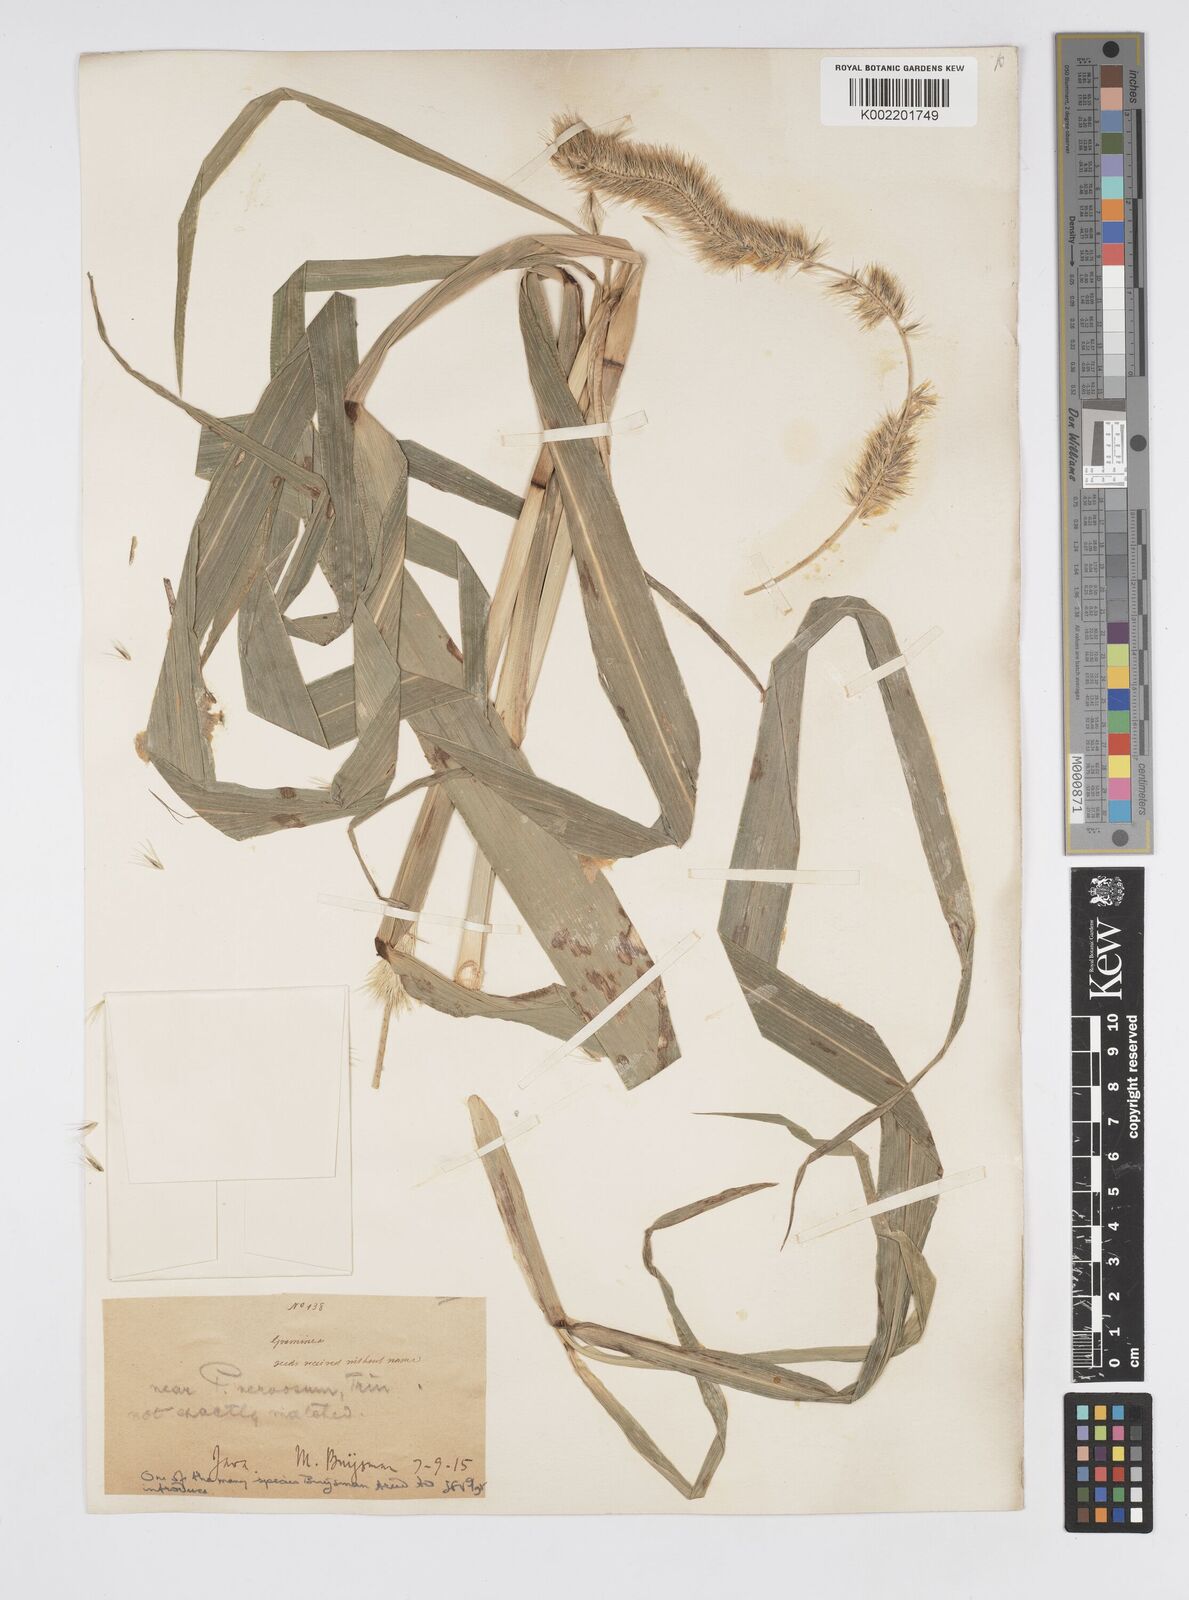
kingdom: Plantae
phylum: Tracheophyta
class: Liliopsida
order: Poales
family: Poaceae
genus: Cenchrus
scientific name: Cenchrus Pennisetum spec
